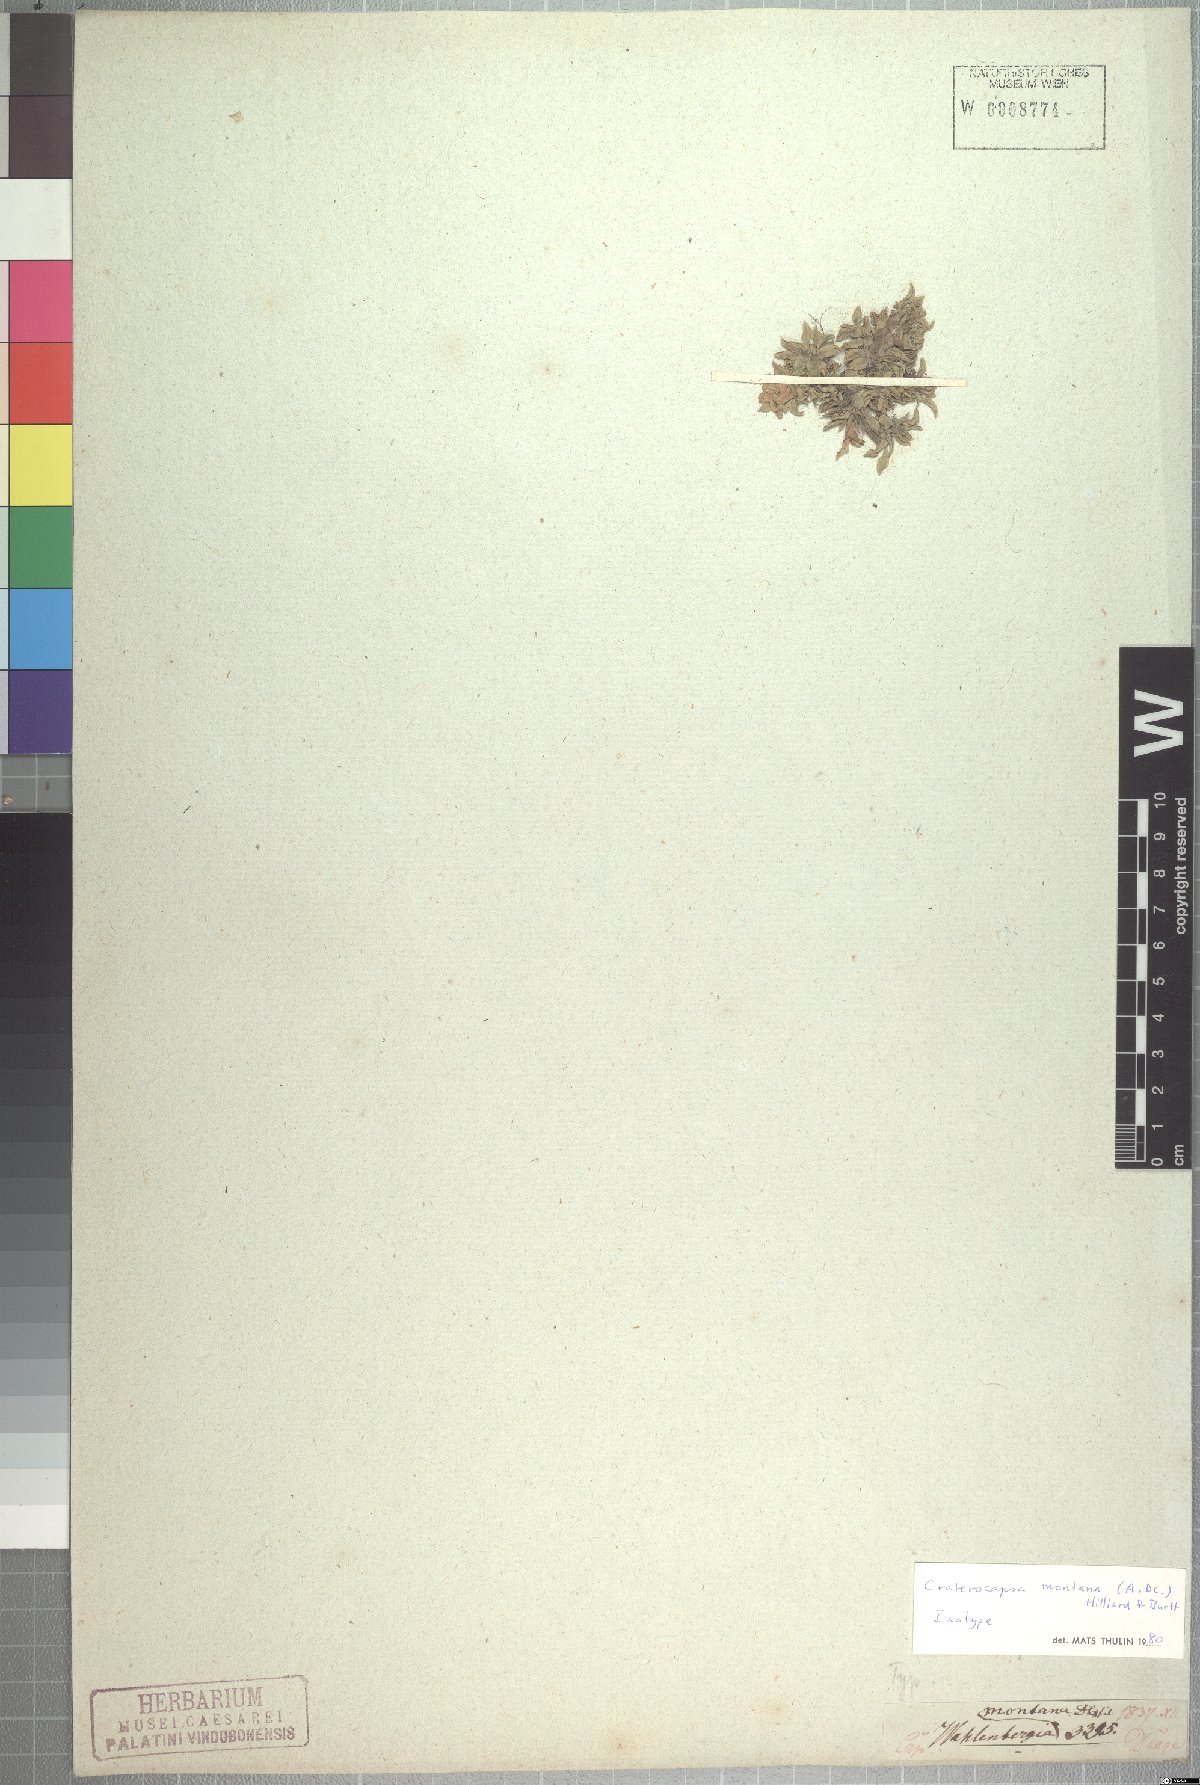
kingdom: Plantae
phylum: Tracheophyta
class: Magnoliopsida
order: Asterales
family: Campanulaceae
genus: Craterocapsa
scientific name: Craterocapsa montana
